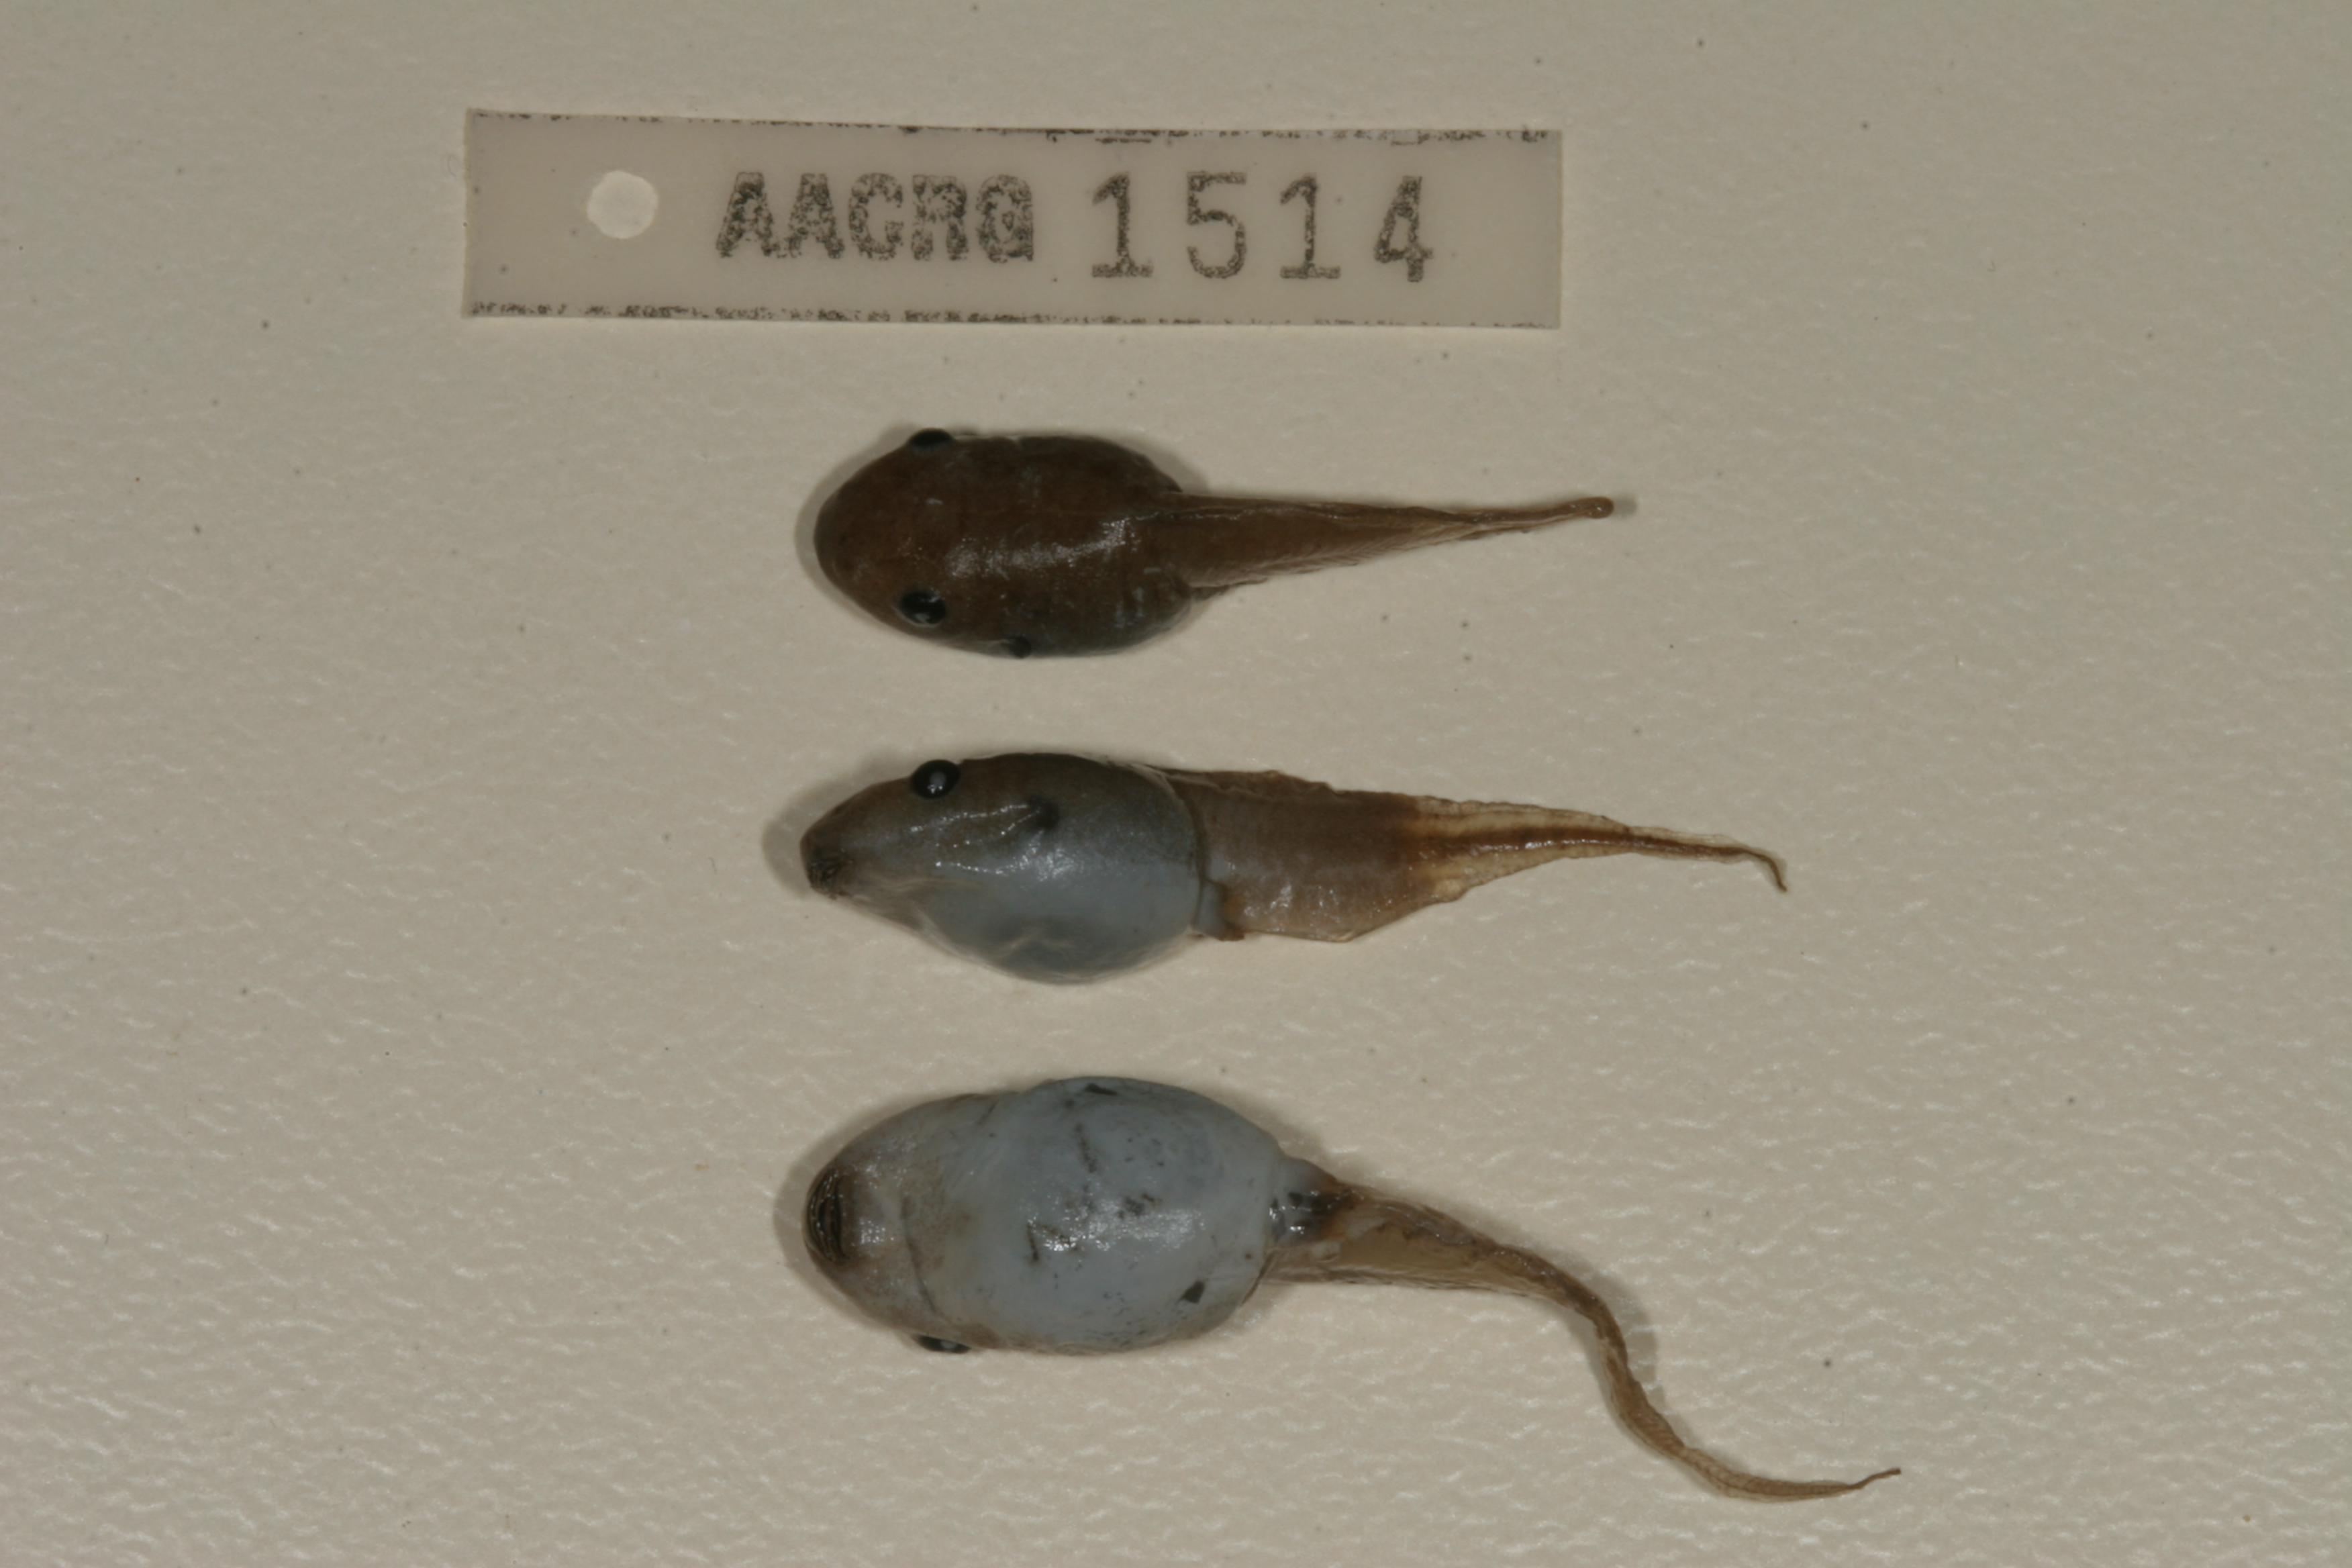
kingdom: Animalia
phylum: Chordata
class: Amphibia
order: Anura
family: Hemisotidae
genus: Hemisus
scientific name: Hemisus marmoratus
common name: Mottled shovel-nosed frog
